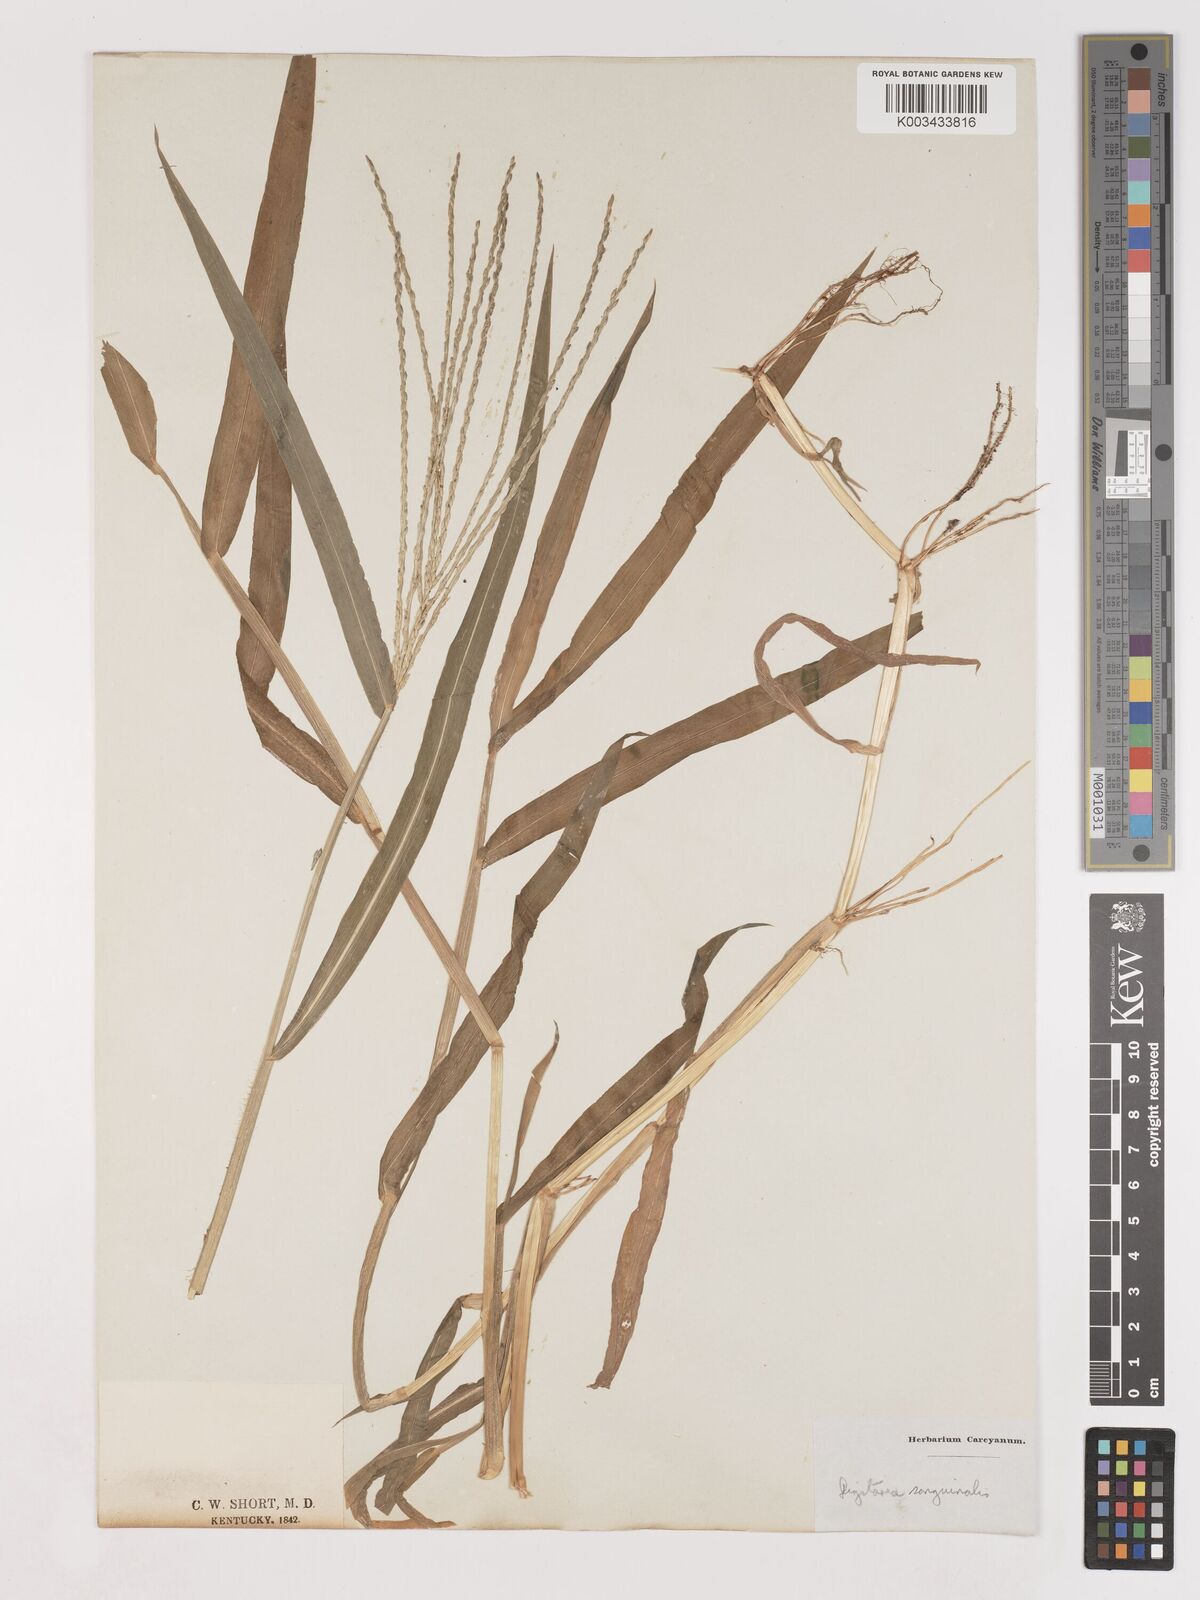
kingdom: Plantae
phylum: Tracheophyta
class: Liliopsida
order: Poales
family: Poaceae
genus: Digitaria
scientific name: Digitaria sanguinalis
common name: Hairy crabgrass
